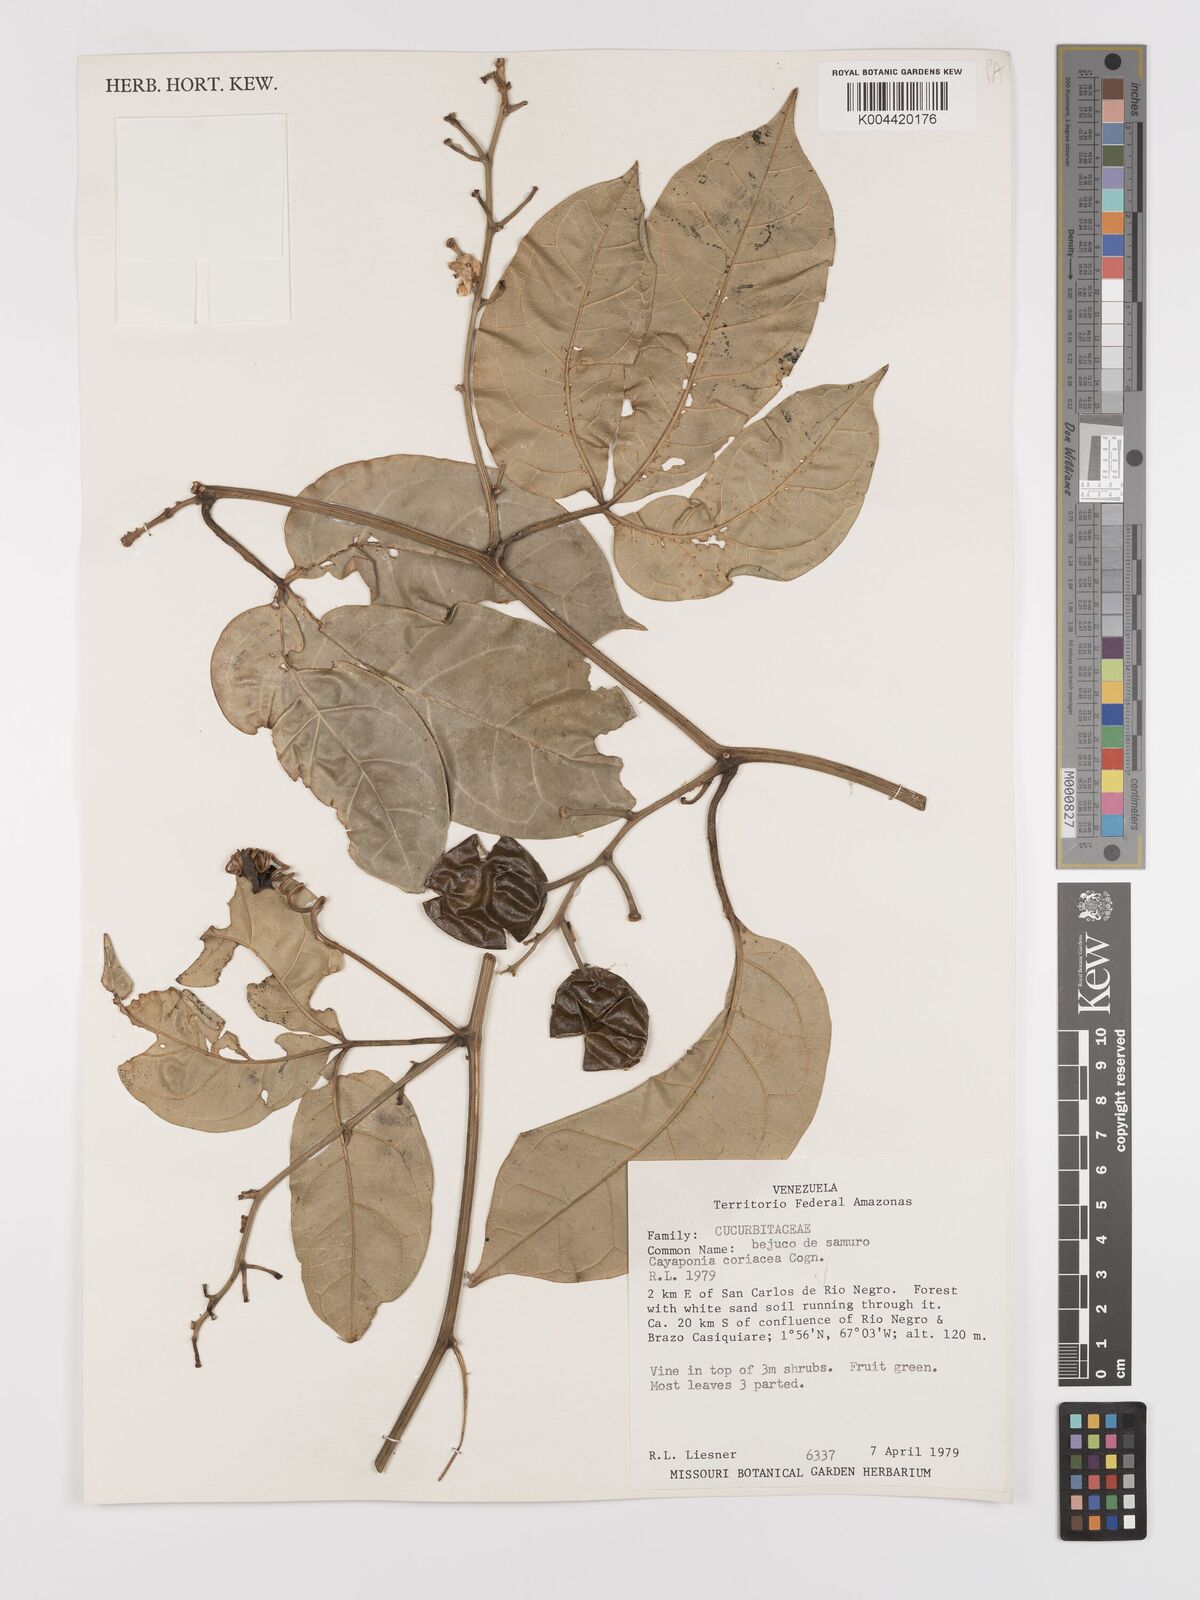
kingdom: Plantae
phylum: Tracheophyta
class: Magnoliopsida
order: Cucurbitales
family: Cucurbitaceae
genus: Cayaponia
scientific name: Cayaponia coriacea
